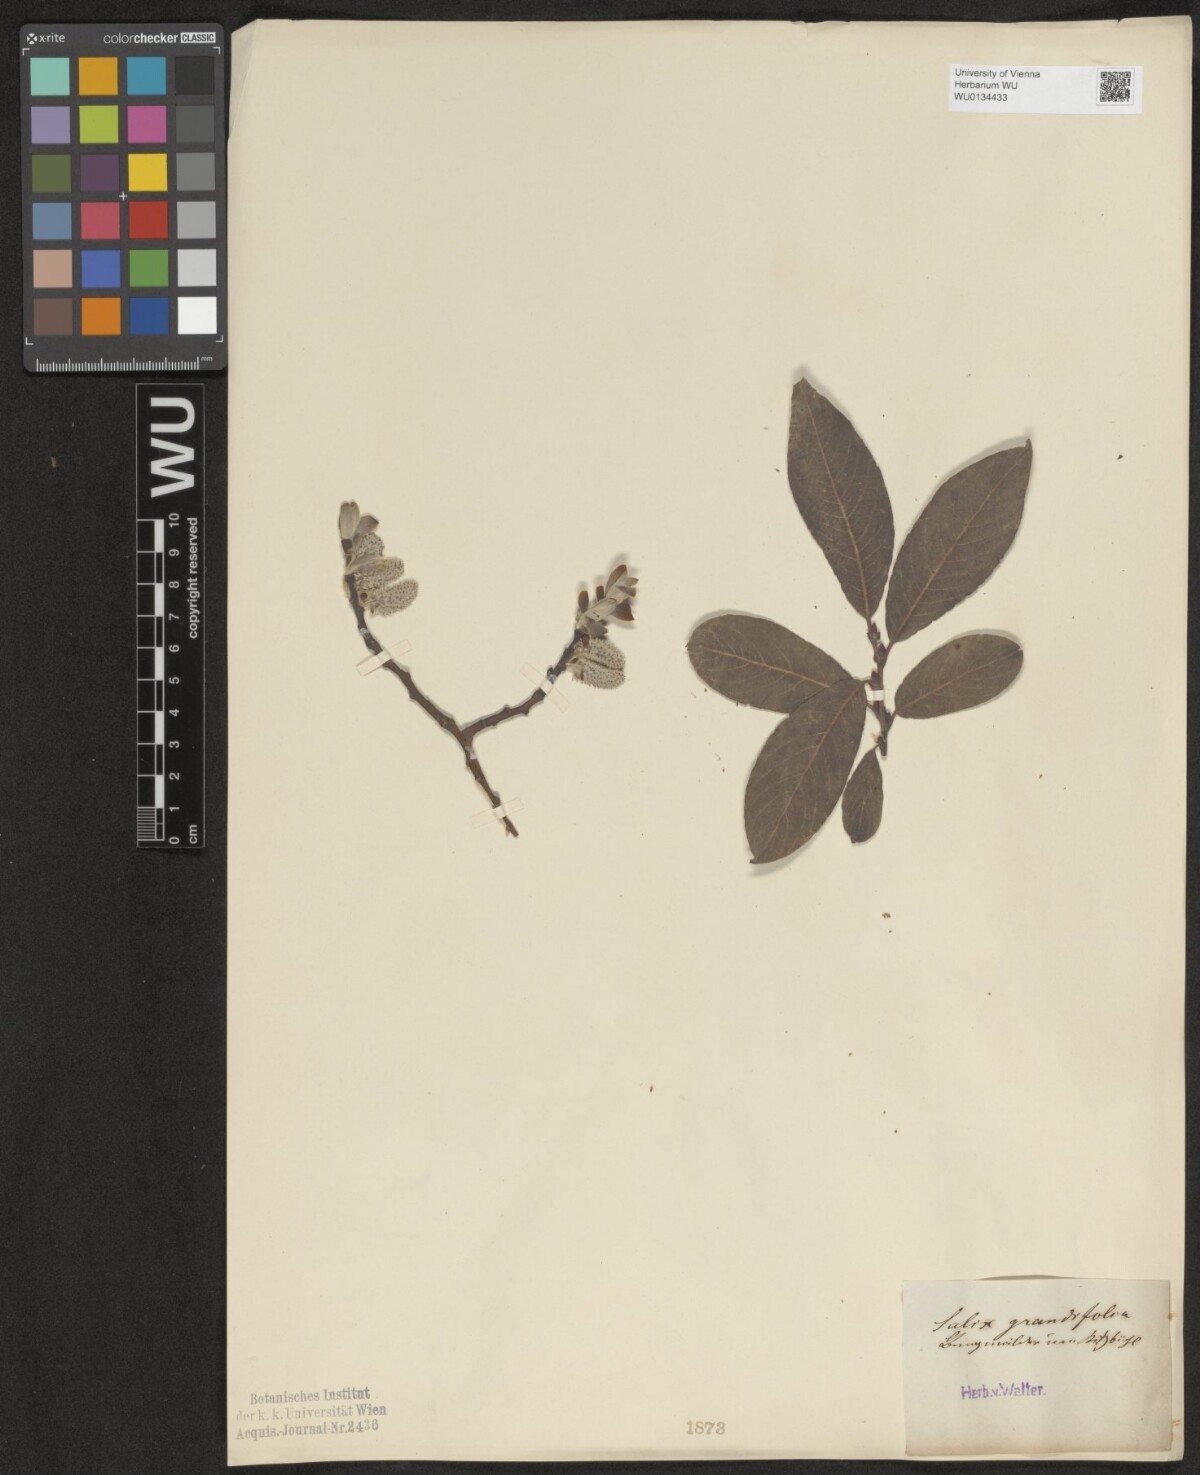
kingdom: Plantae
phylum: Tracheophyta
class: Magnoliopsida
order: Malpighiales
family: Salicaceae
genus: Salix
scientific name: Salix appendiculata
